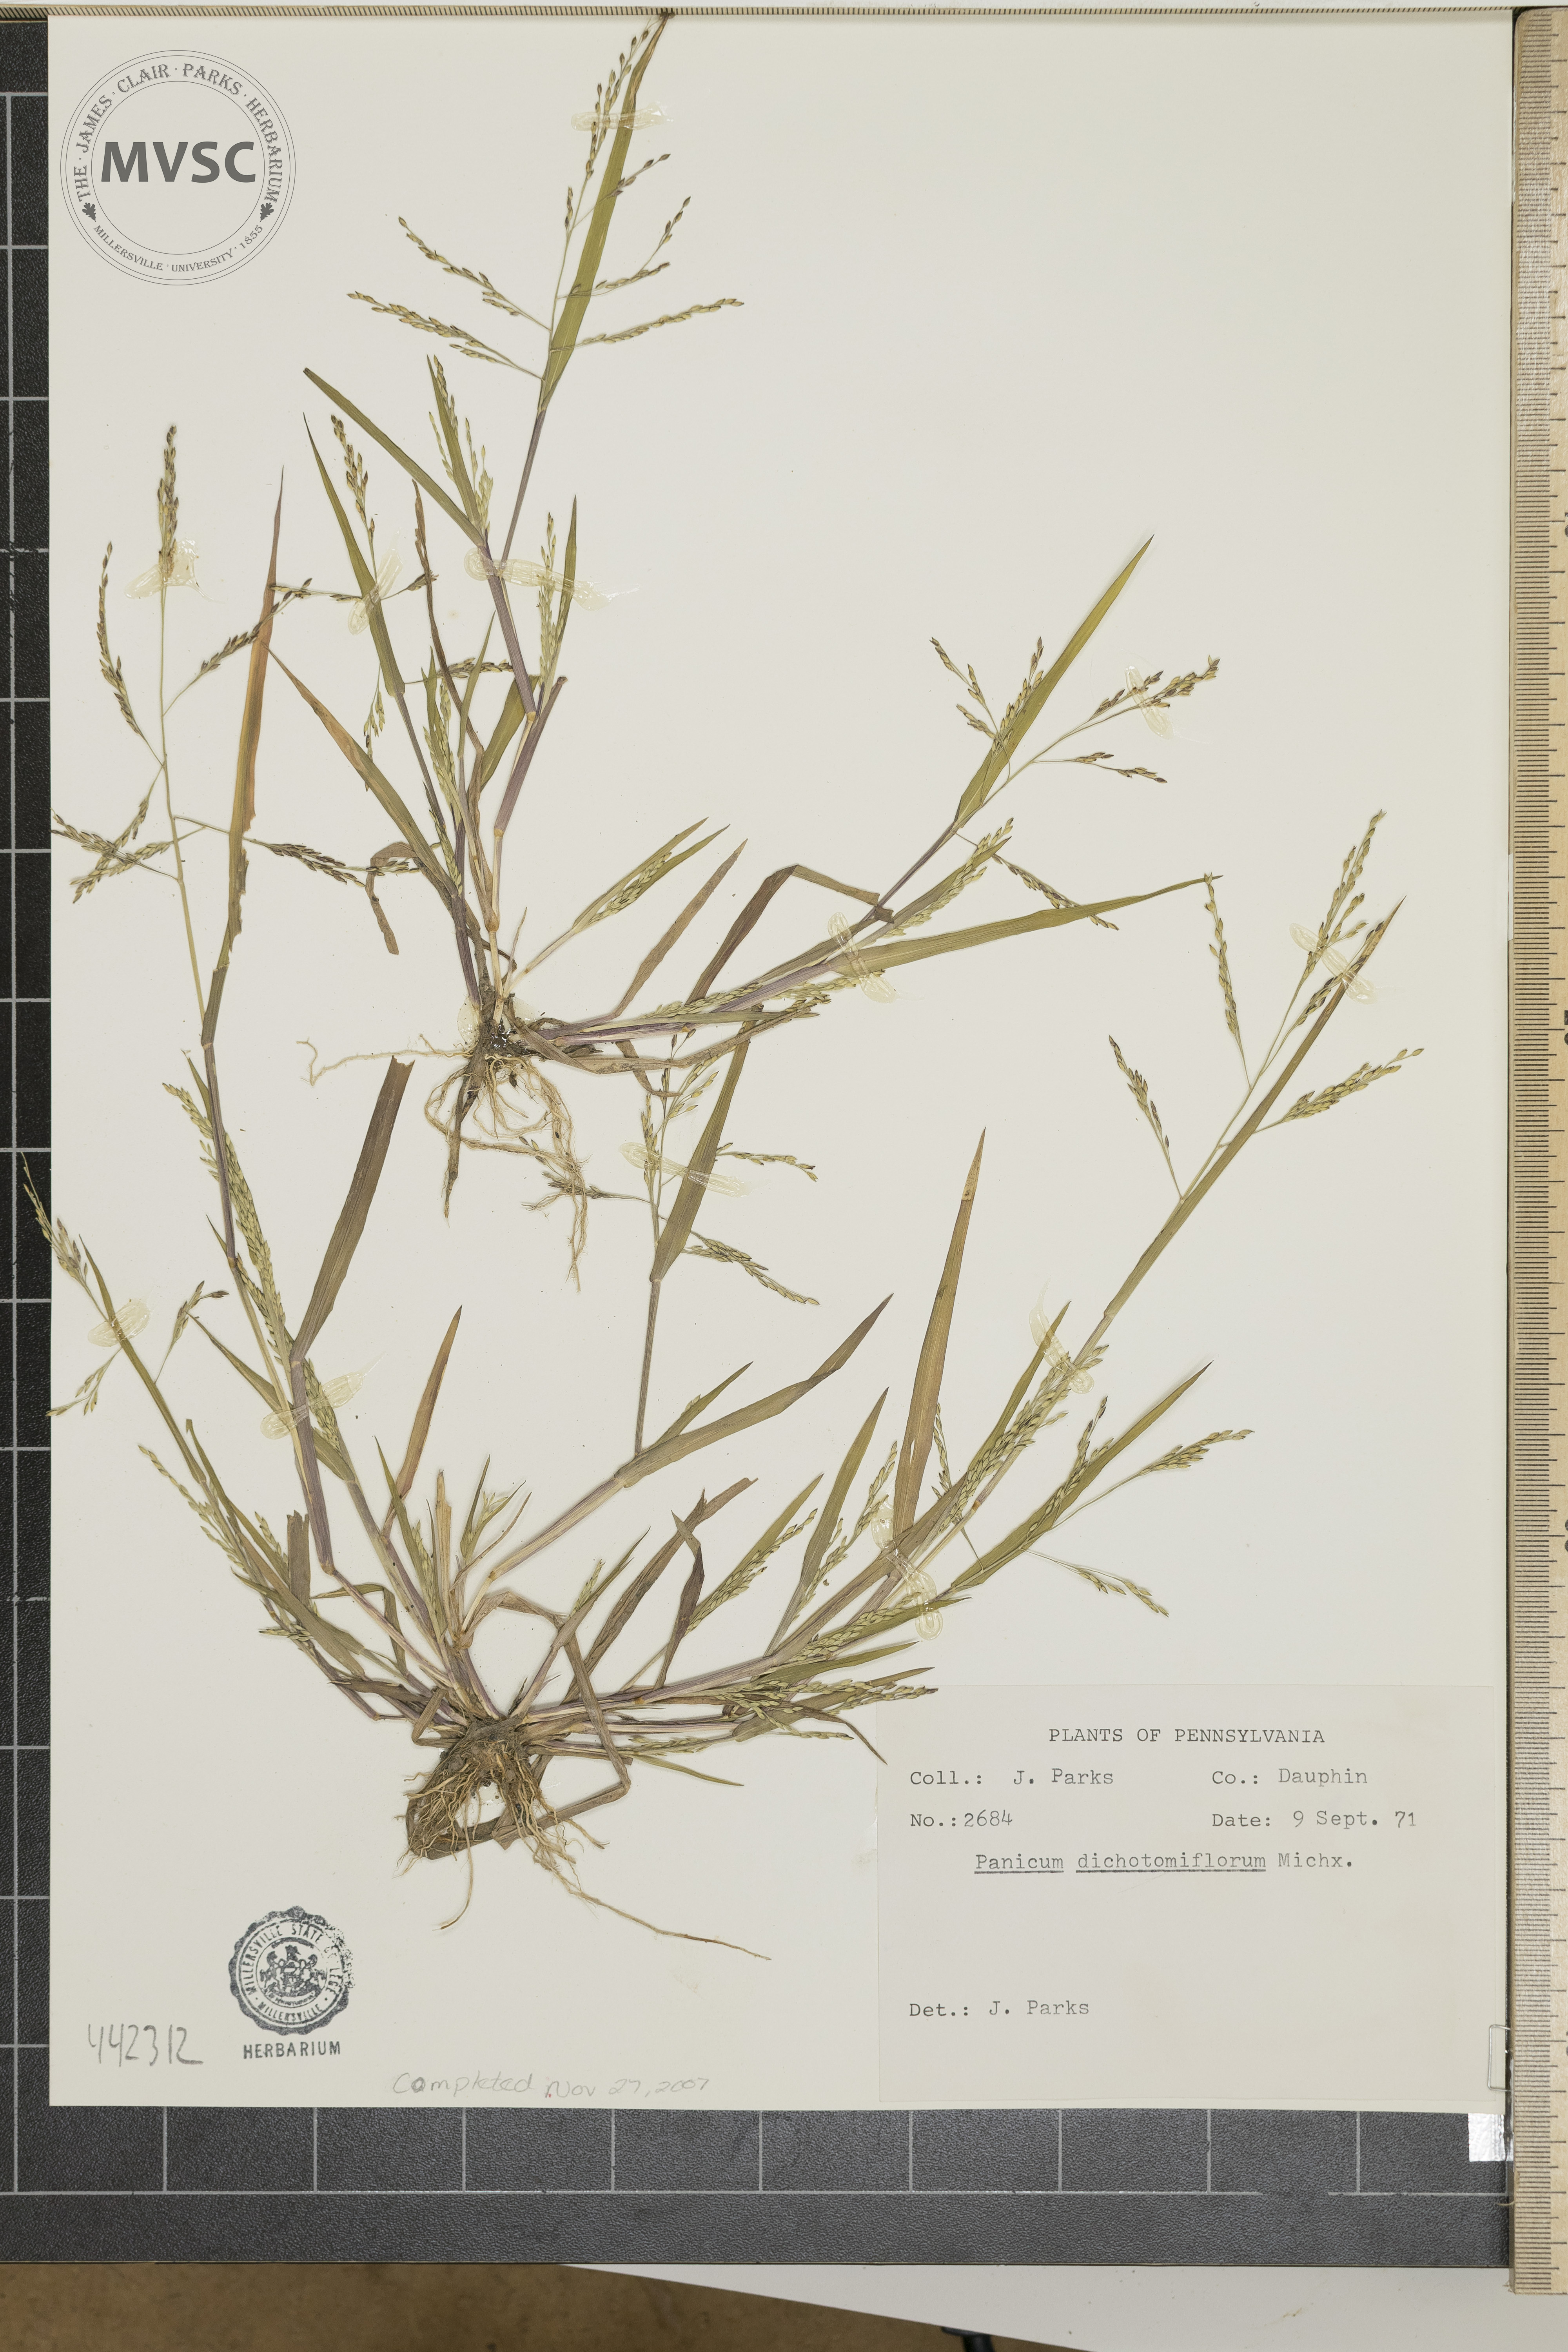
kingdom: Plantae
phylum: Tracheophyta
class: Liliopsida
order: Poales
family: Poaceae
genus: Panicum
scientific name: Panicum dichotomiflorum
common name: Autumn millet
